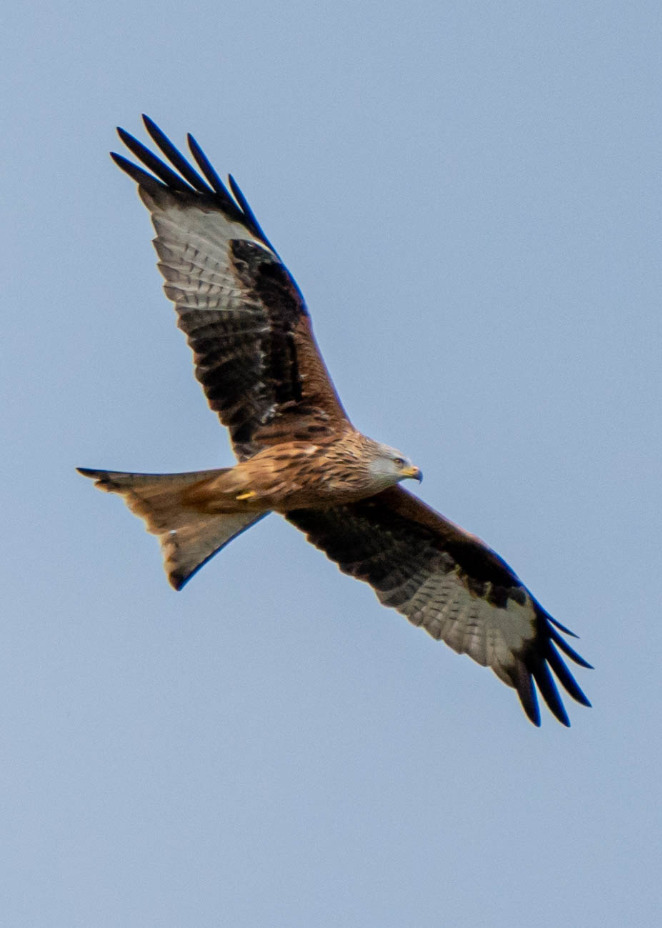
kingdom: Animalia
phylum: Chordata
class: Aves
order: Accipitriformes
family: Accipitridae
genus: Milvus
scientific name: Milvus milvus
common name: Rød glente
